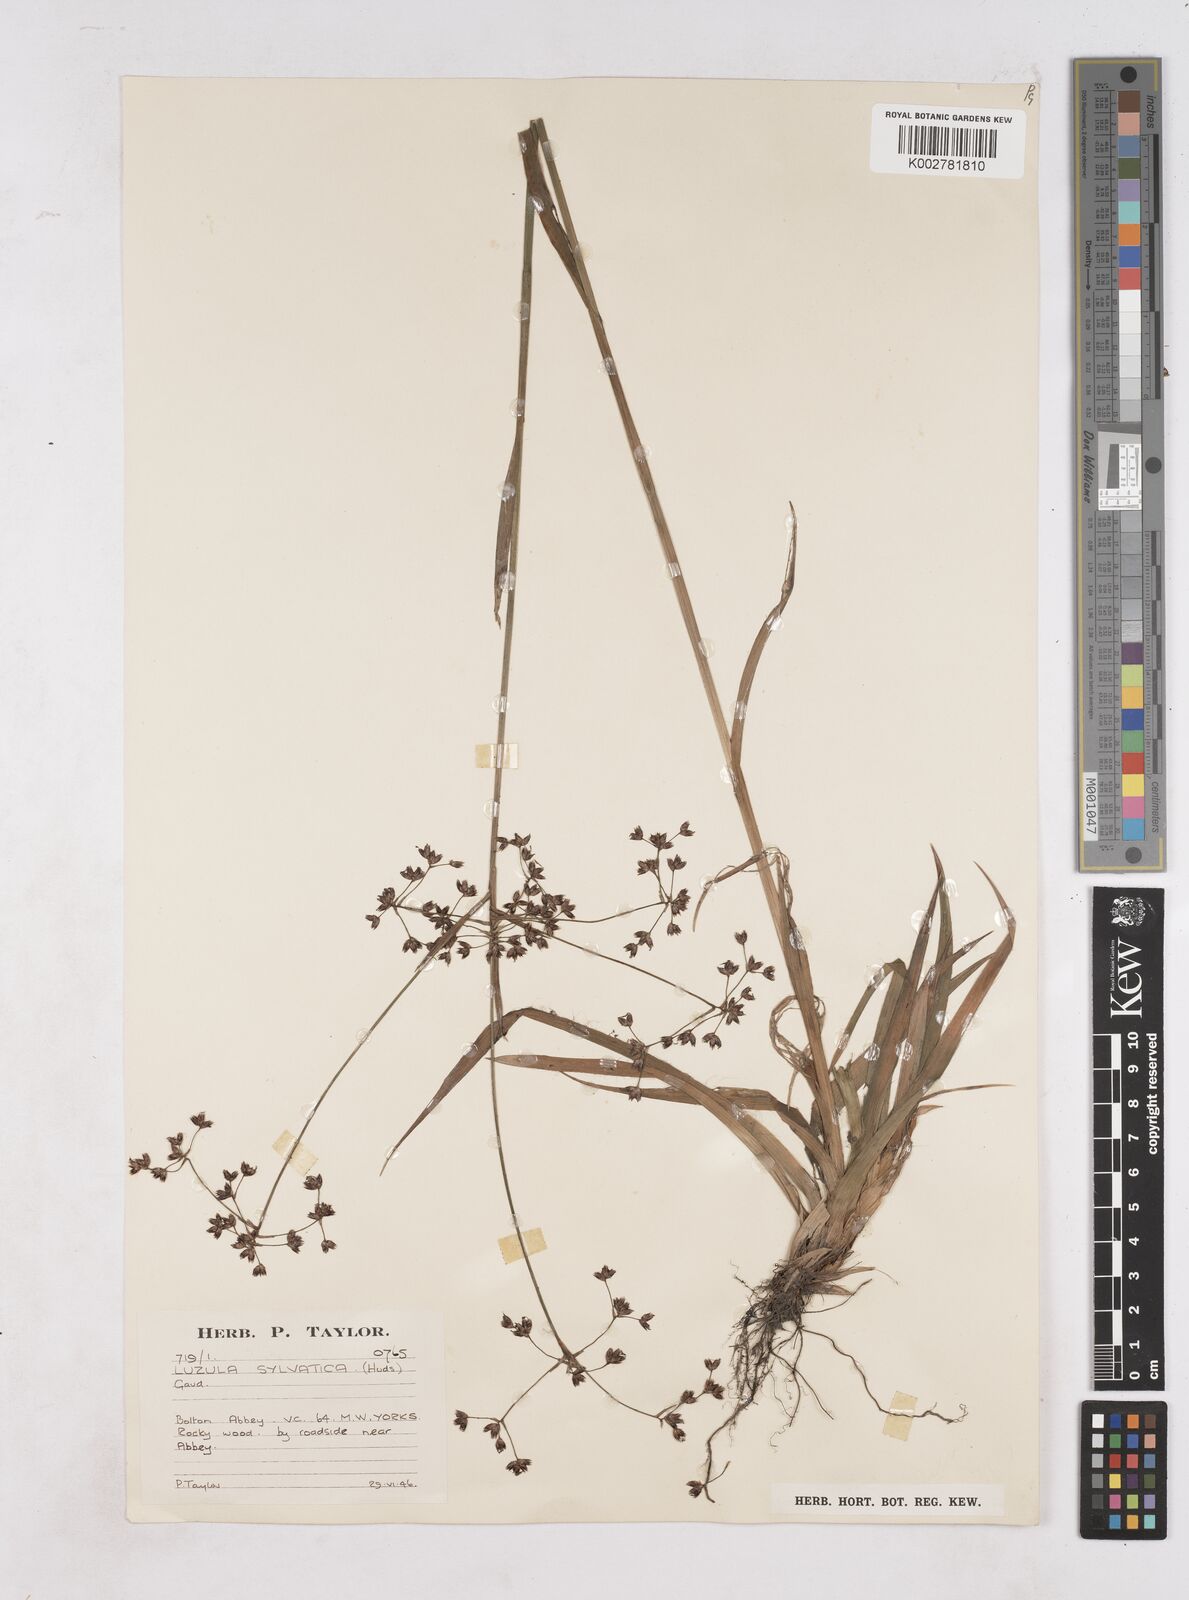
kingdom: Plantae
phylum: Tracheophyta
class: Liliopsida
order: Poales
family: Juncaceae
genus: Luzula
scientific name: Luzula sylvatica
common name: Great wood-rush
